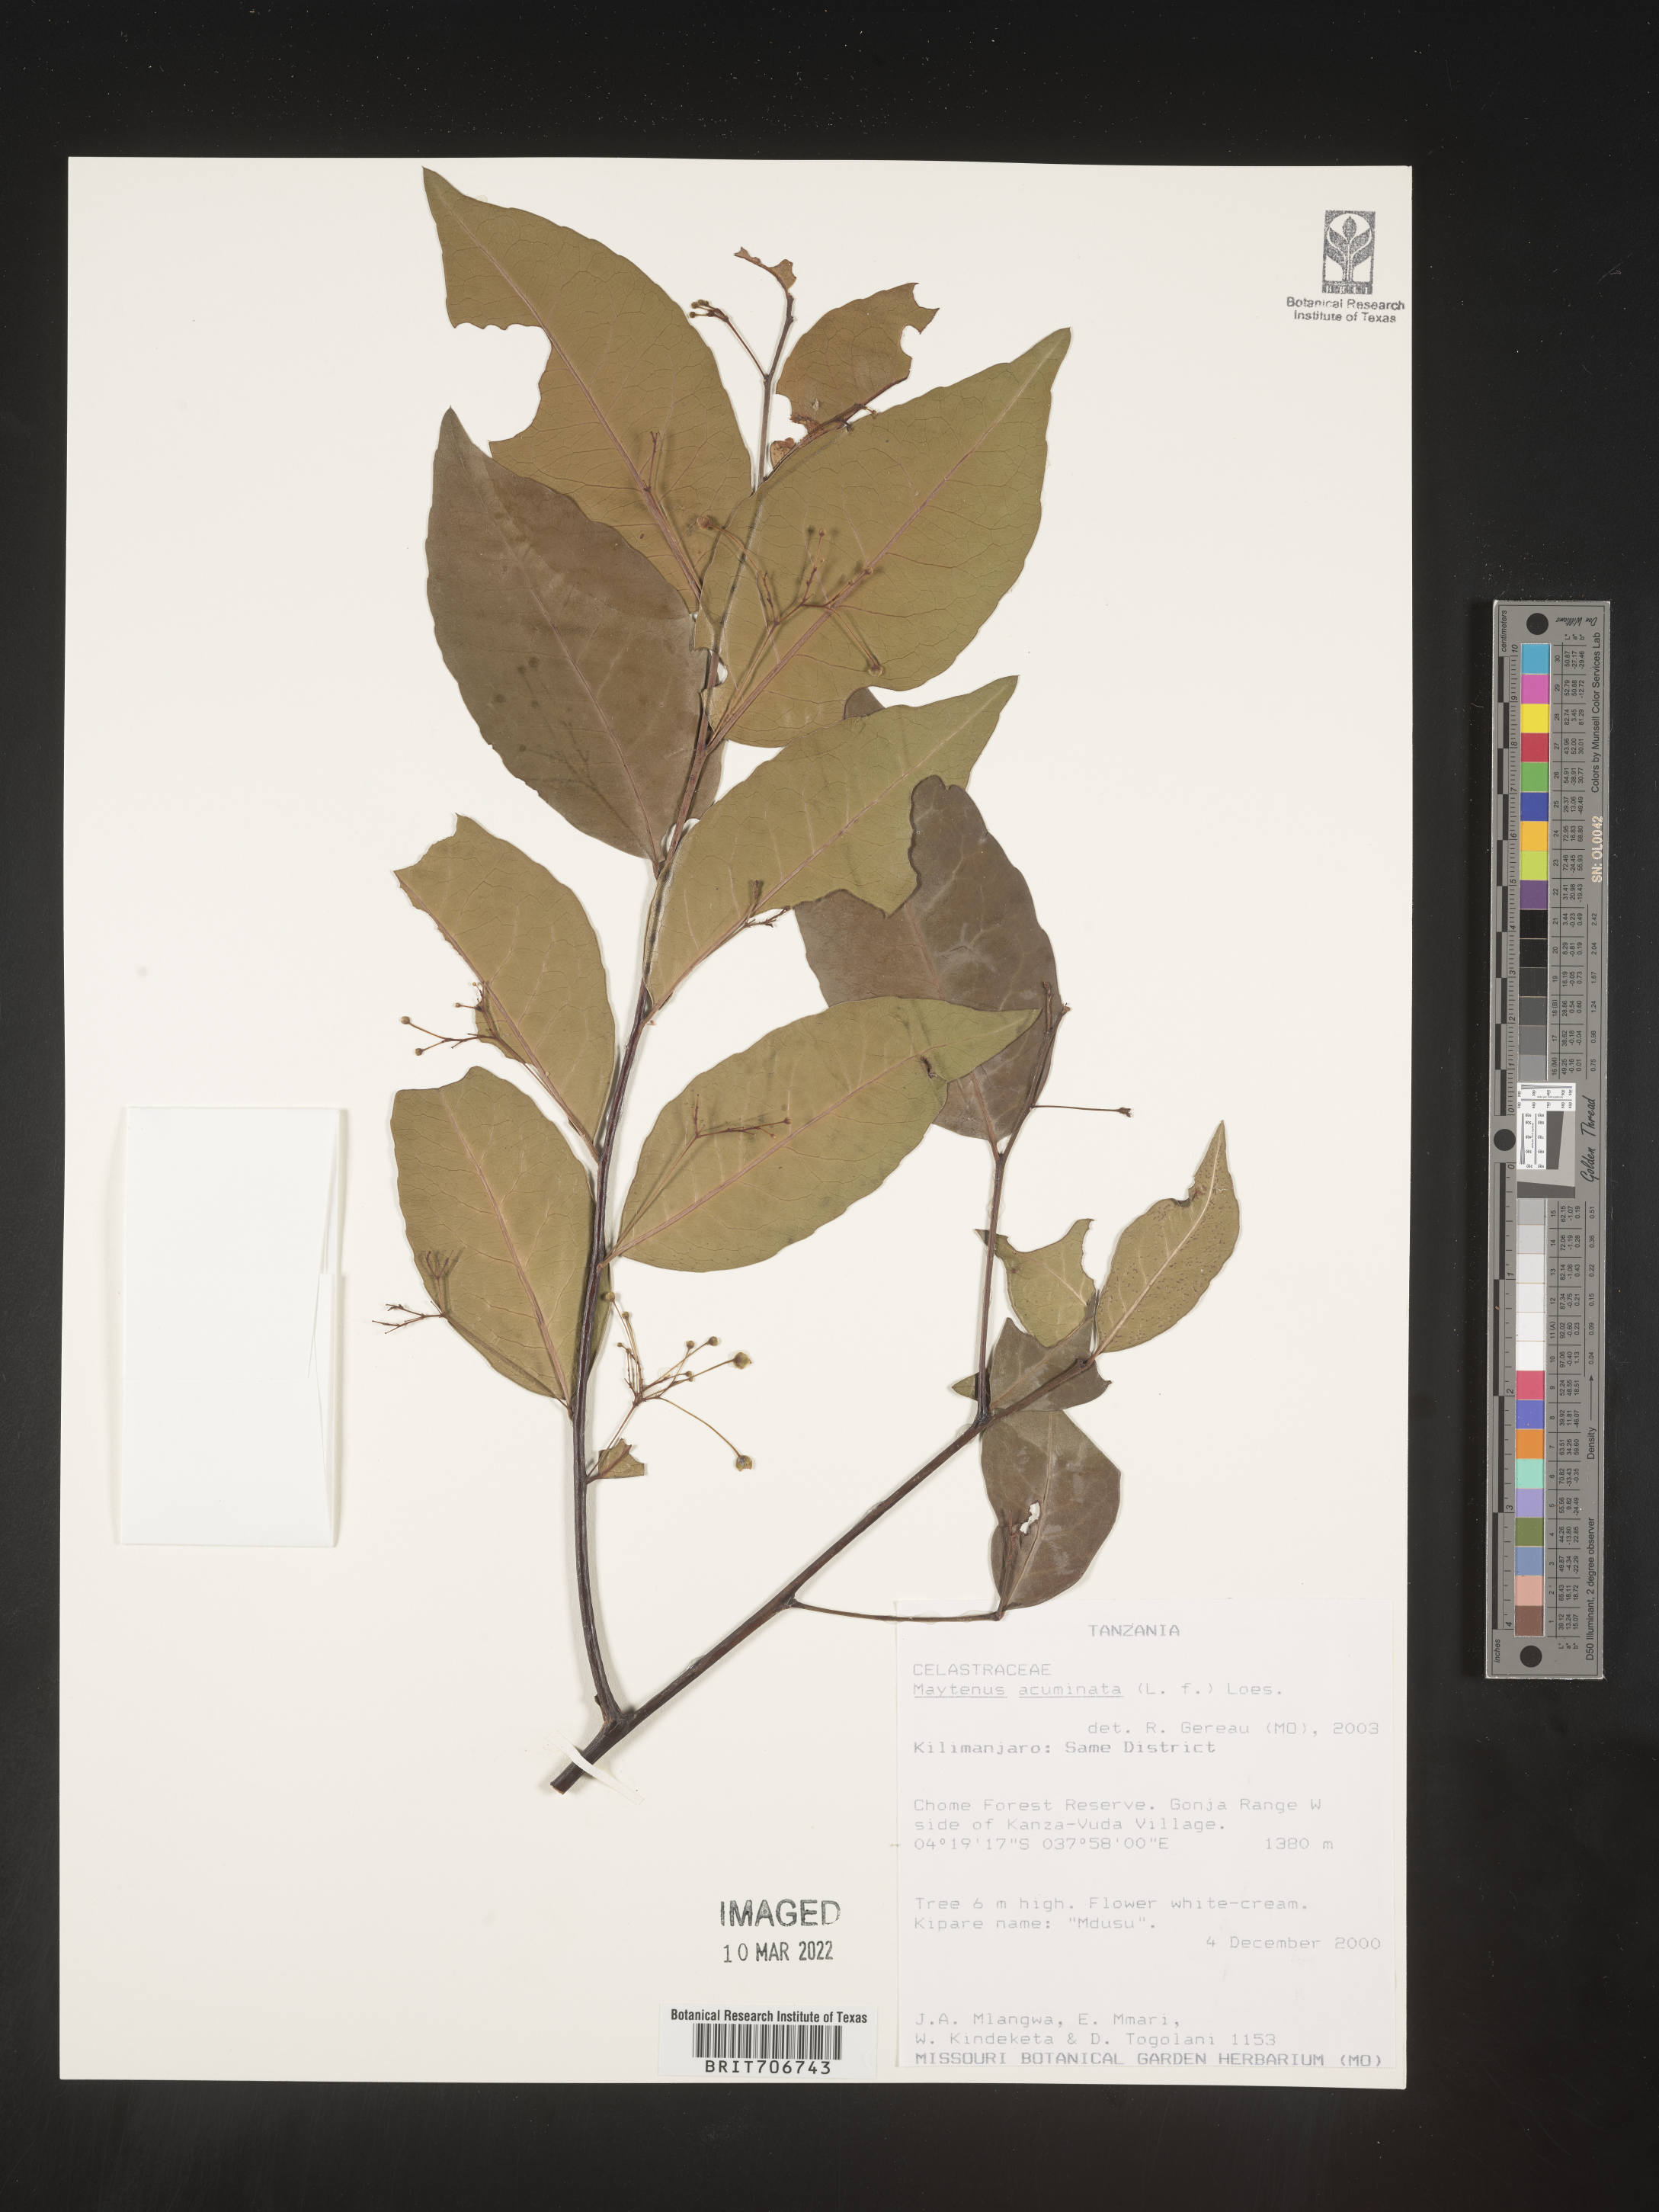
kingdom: Plantae
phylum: Tracheophyta
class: Magnoliopsida
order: Celastrales
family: Celastraceae
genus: Maytenus
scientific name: Maytenus
